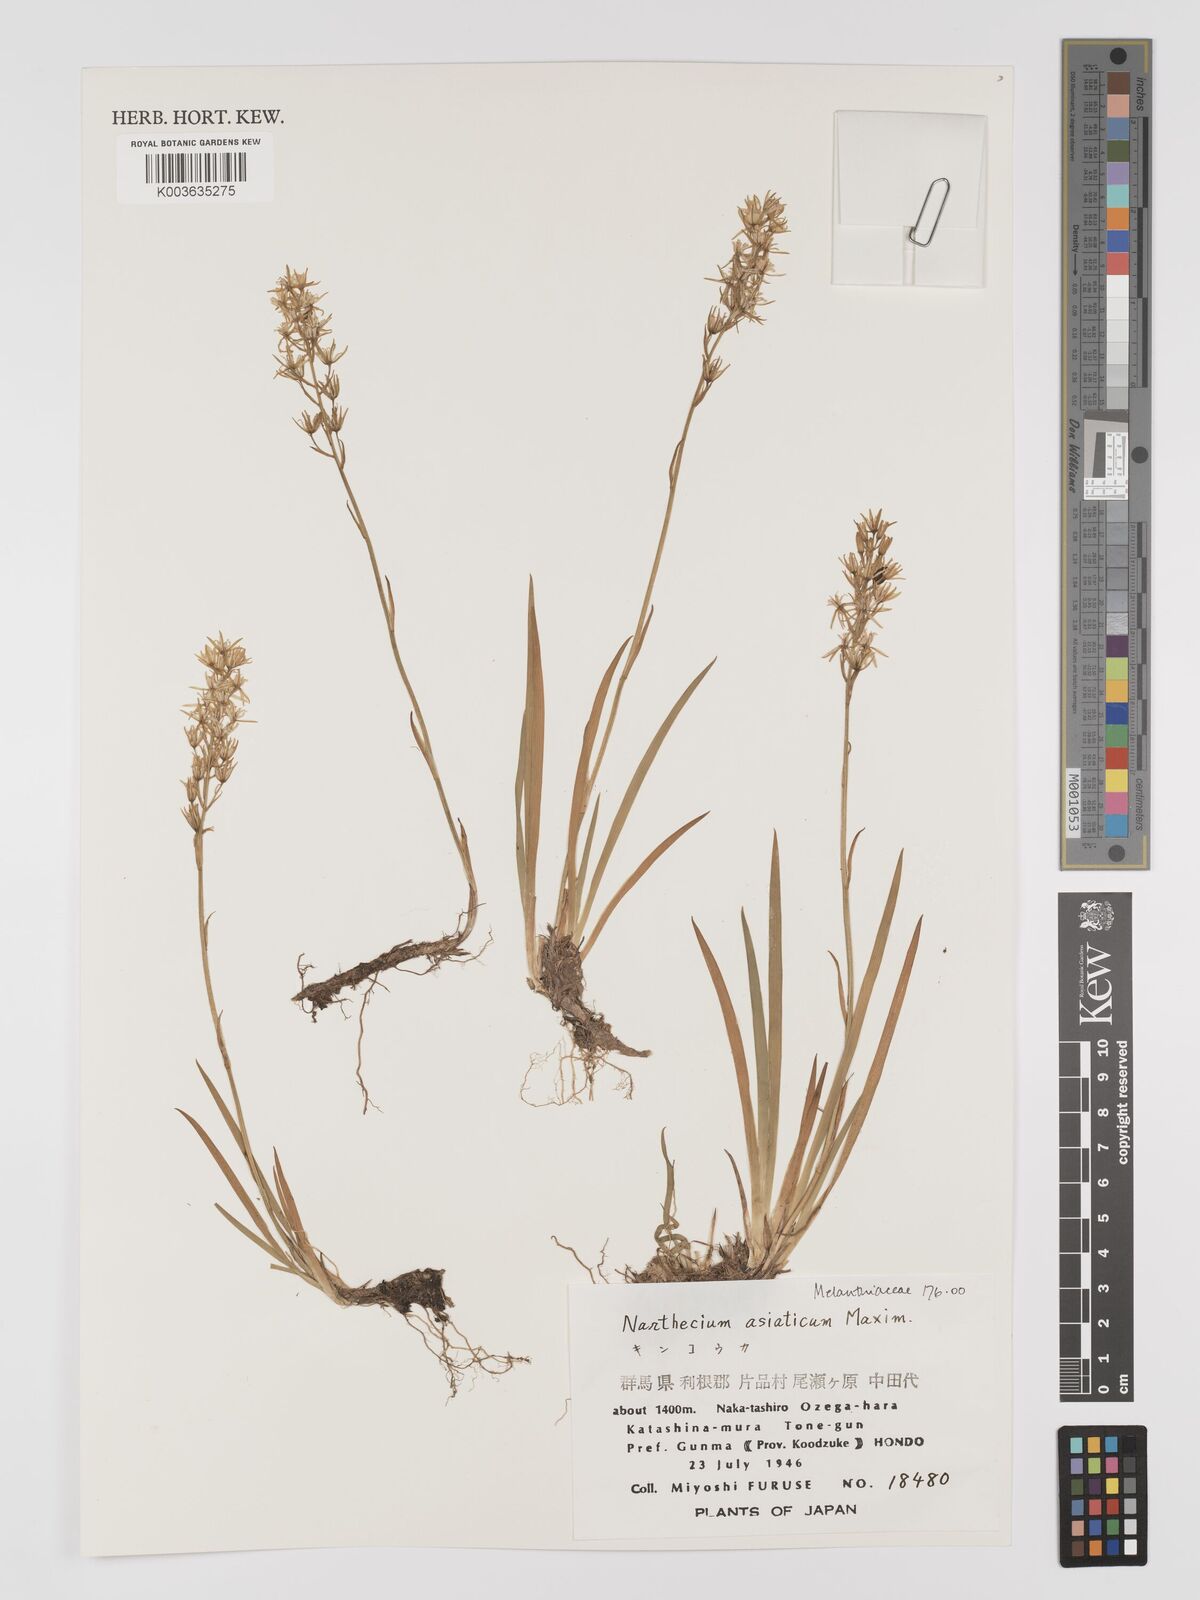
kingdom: Plantae
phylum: Tracheophyta
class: Liliopsida
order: Dioscoreales
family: Nartheciaceae
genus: Narthecium
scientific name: Narthecium asiaticum
